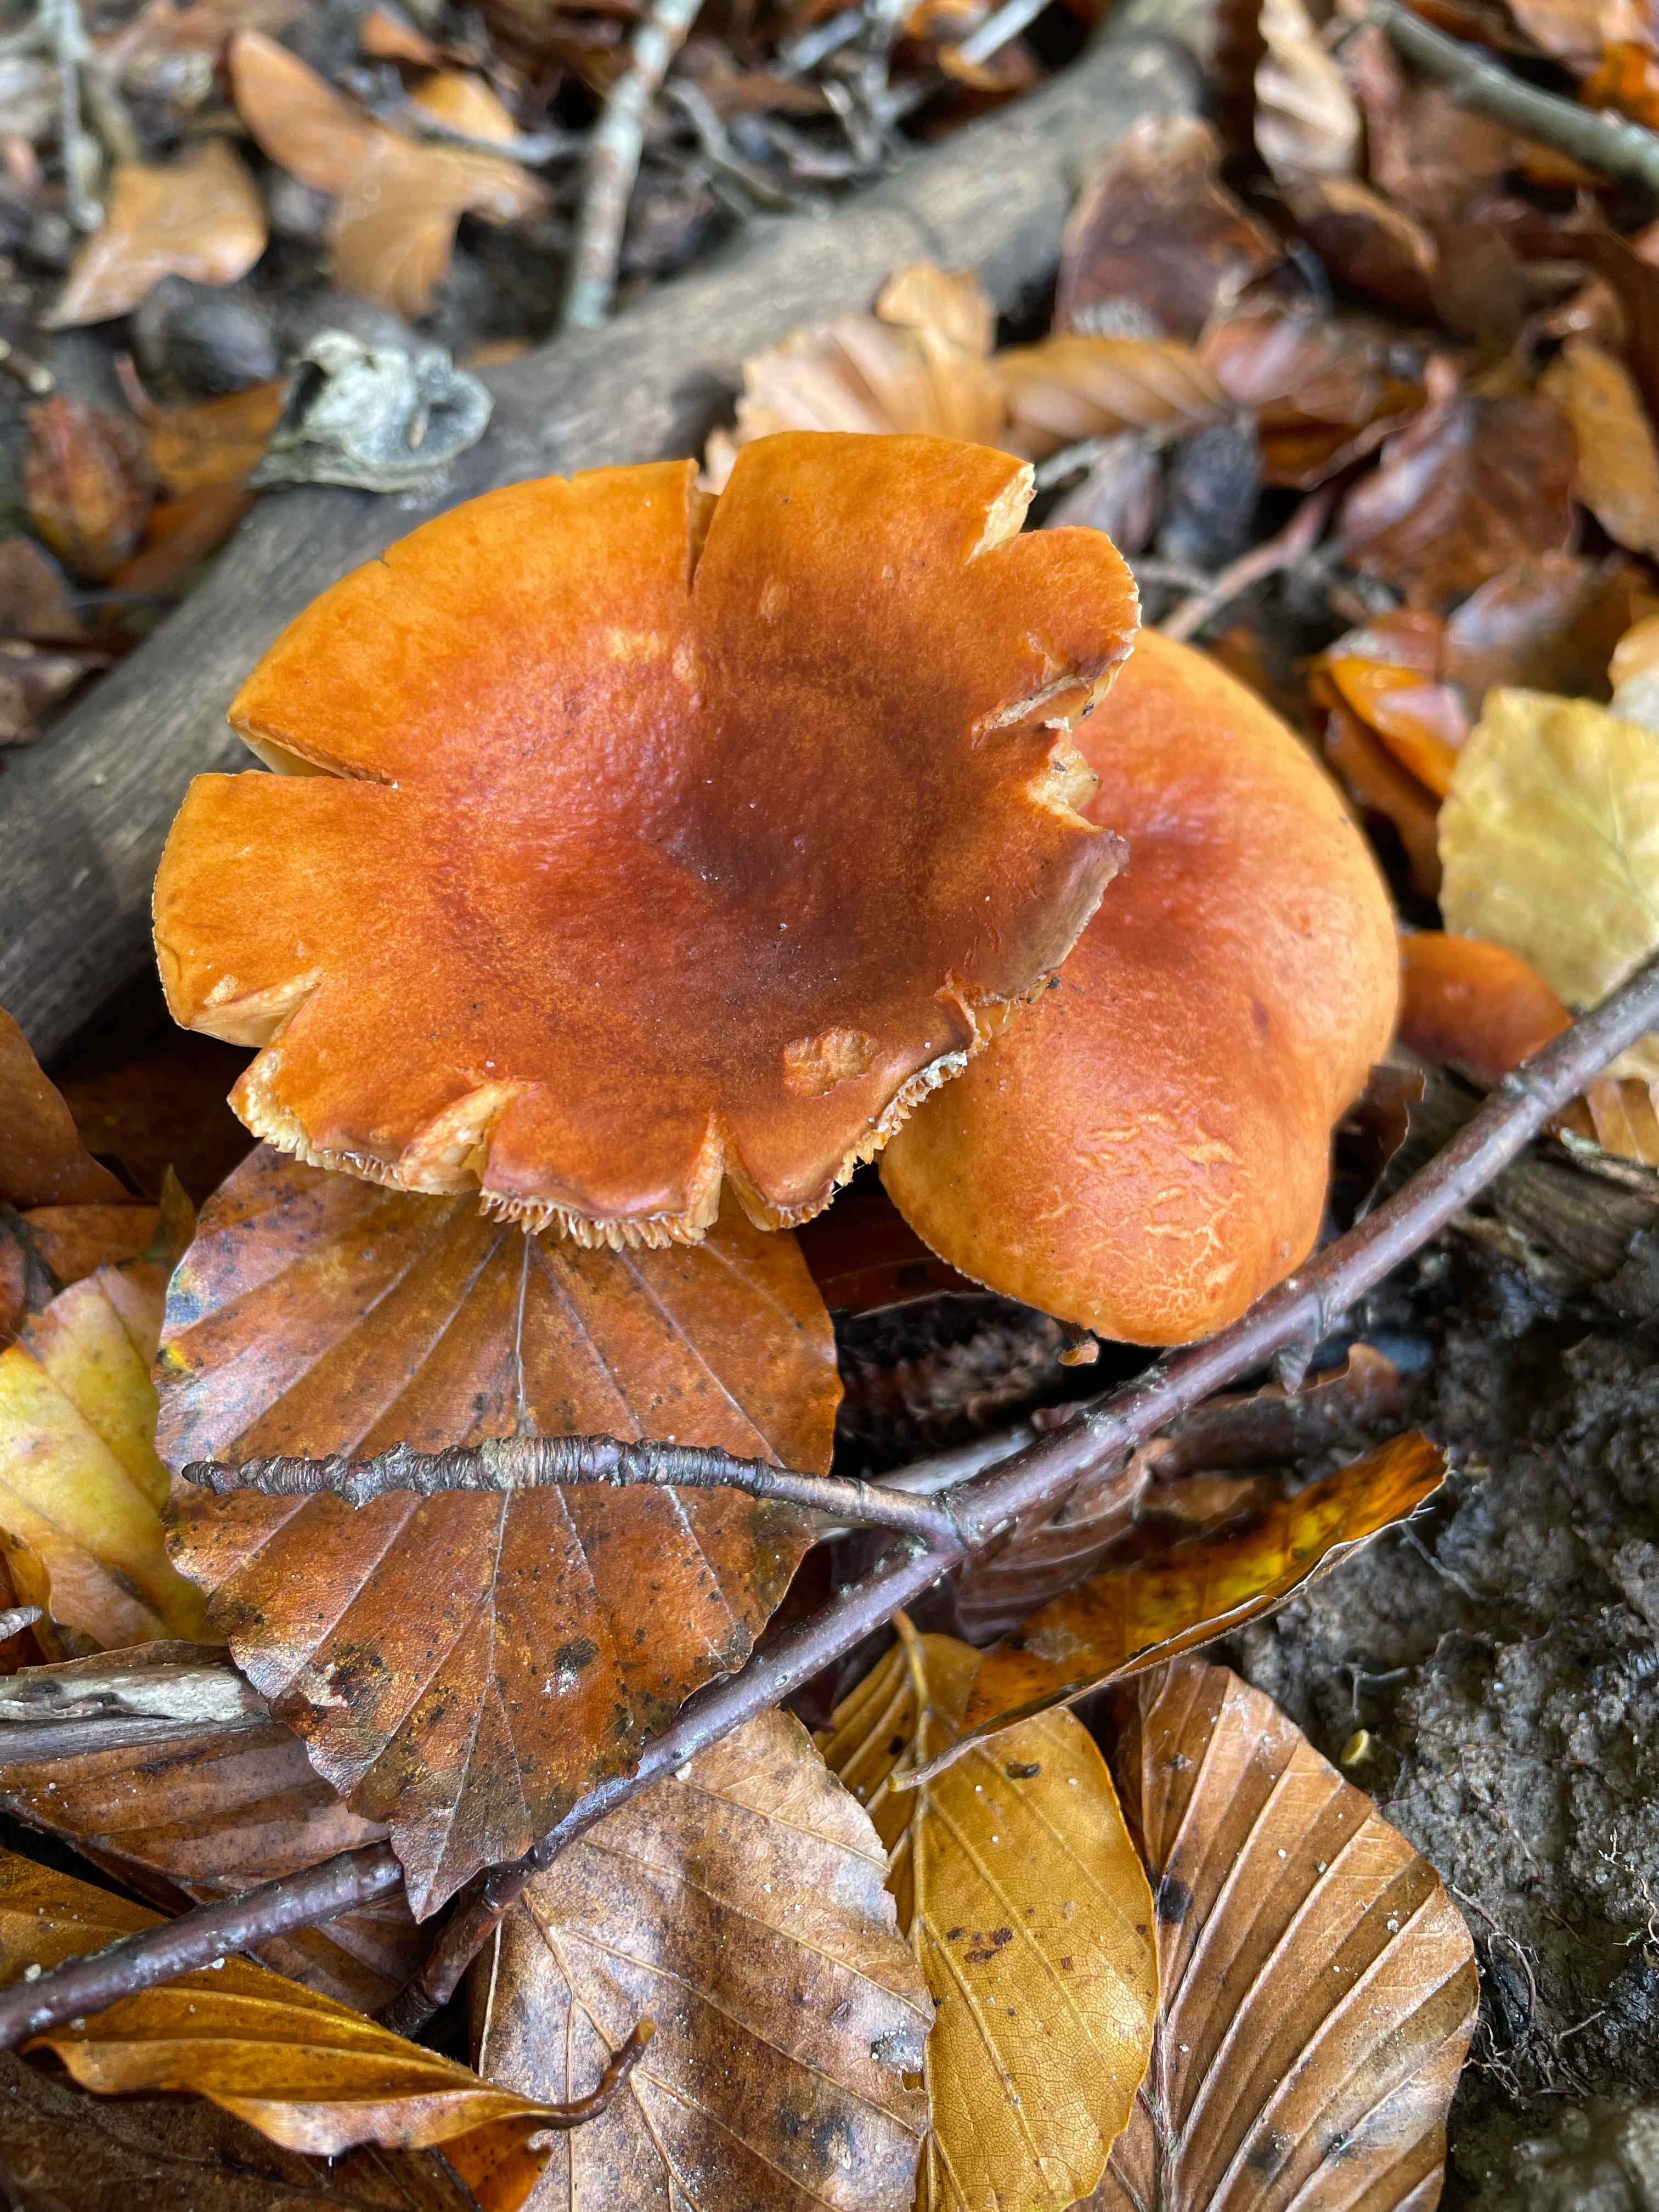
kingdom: Fungi
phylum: Basidiomycota
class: Agaricomycetes
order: Russulales
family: Russulaceae
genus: Lactarius
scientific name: Lactarius
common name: mælkehat
